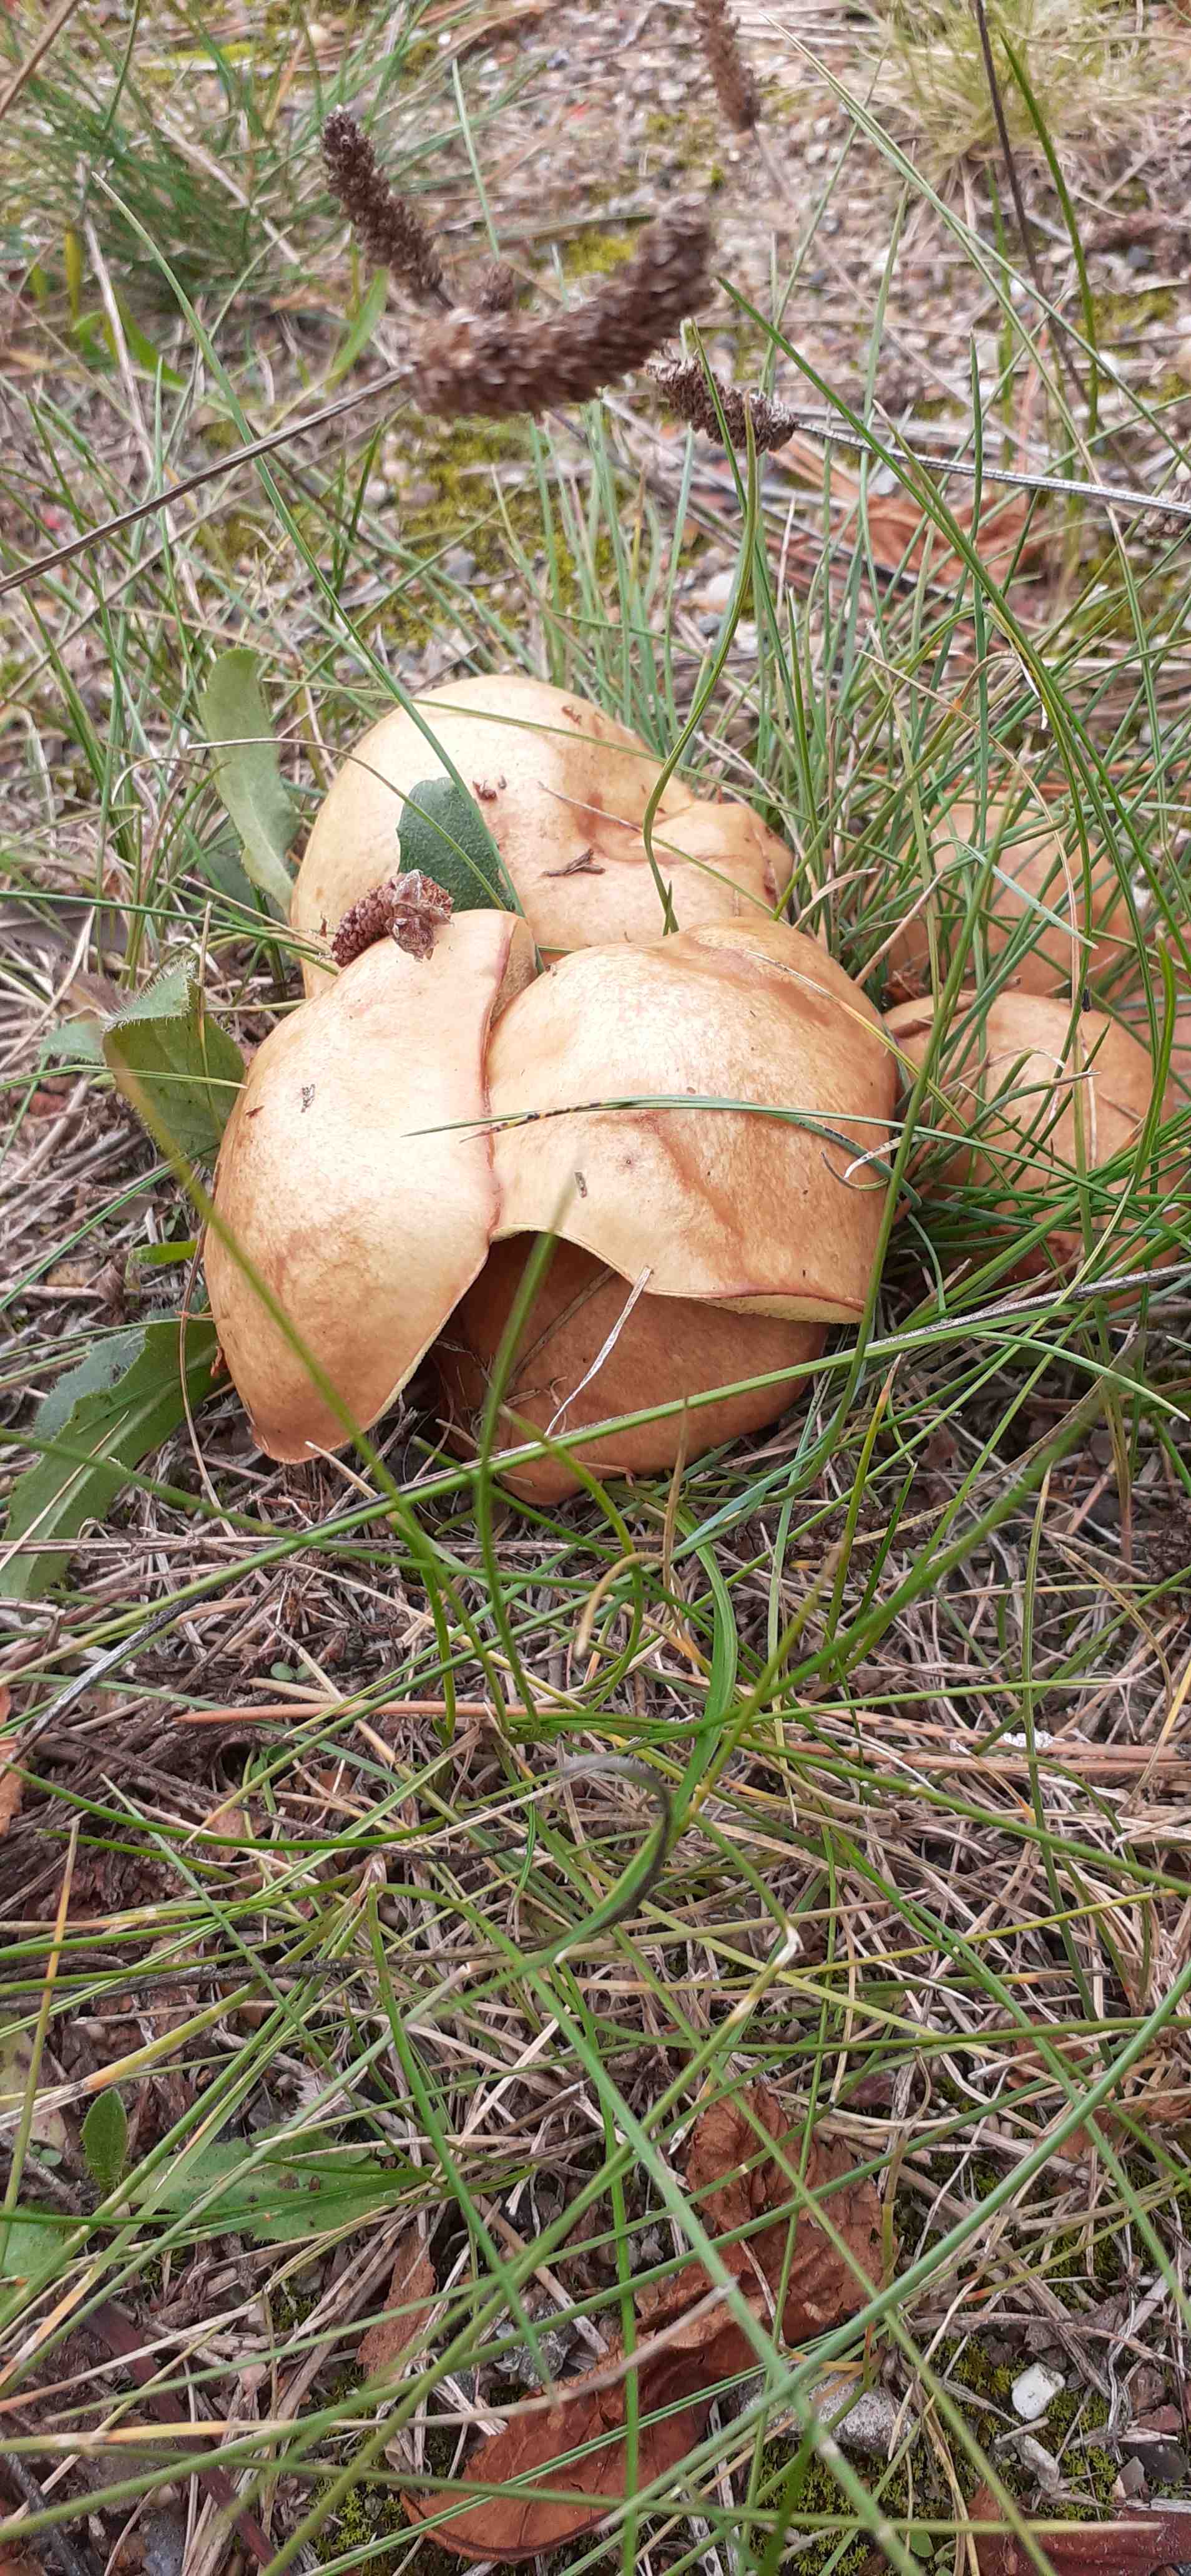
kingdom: Fungi
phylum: Basidiomycota
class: Agaricomycetes
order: Boletales
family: Suillaceae
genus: Suillus
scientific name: Suillus granulatus
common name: kornet slimrørhat
